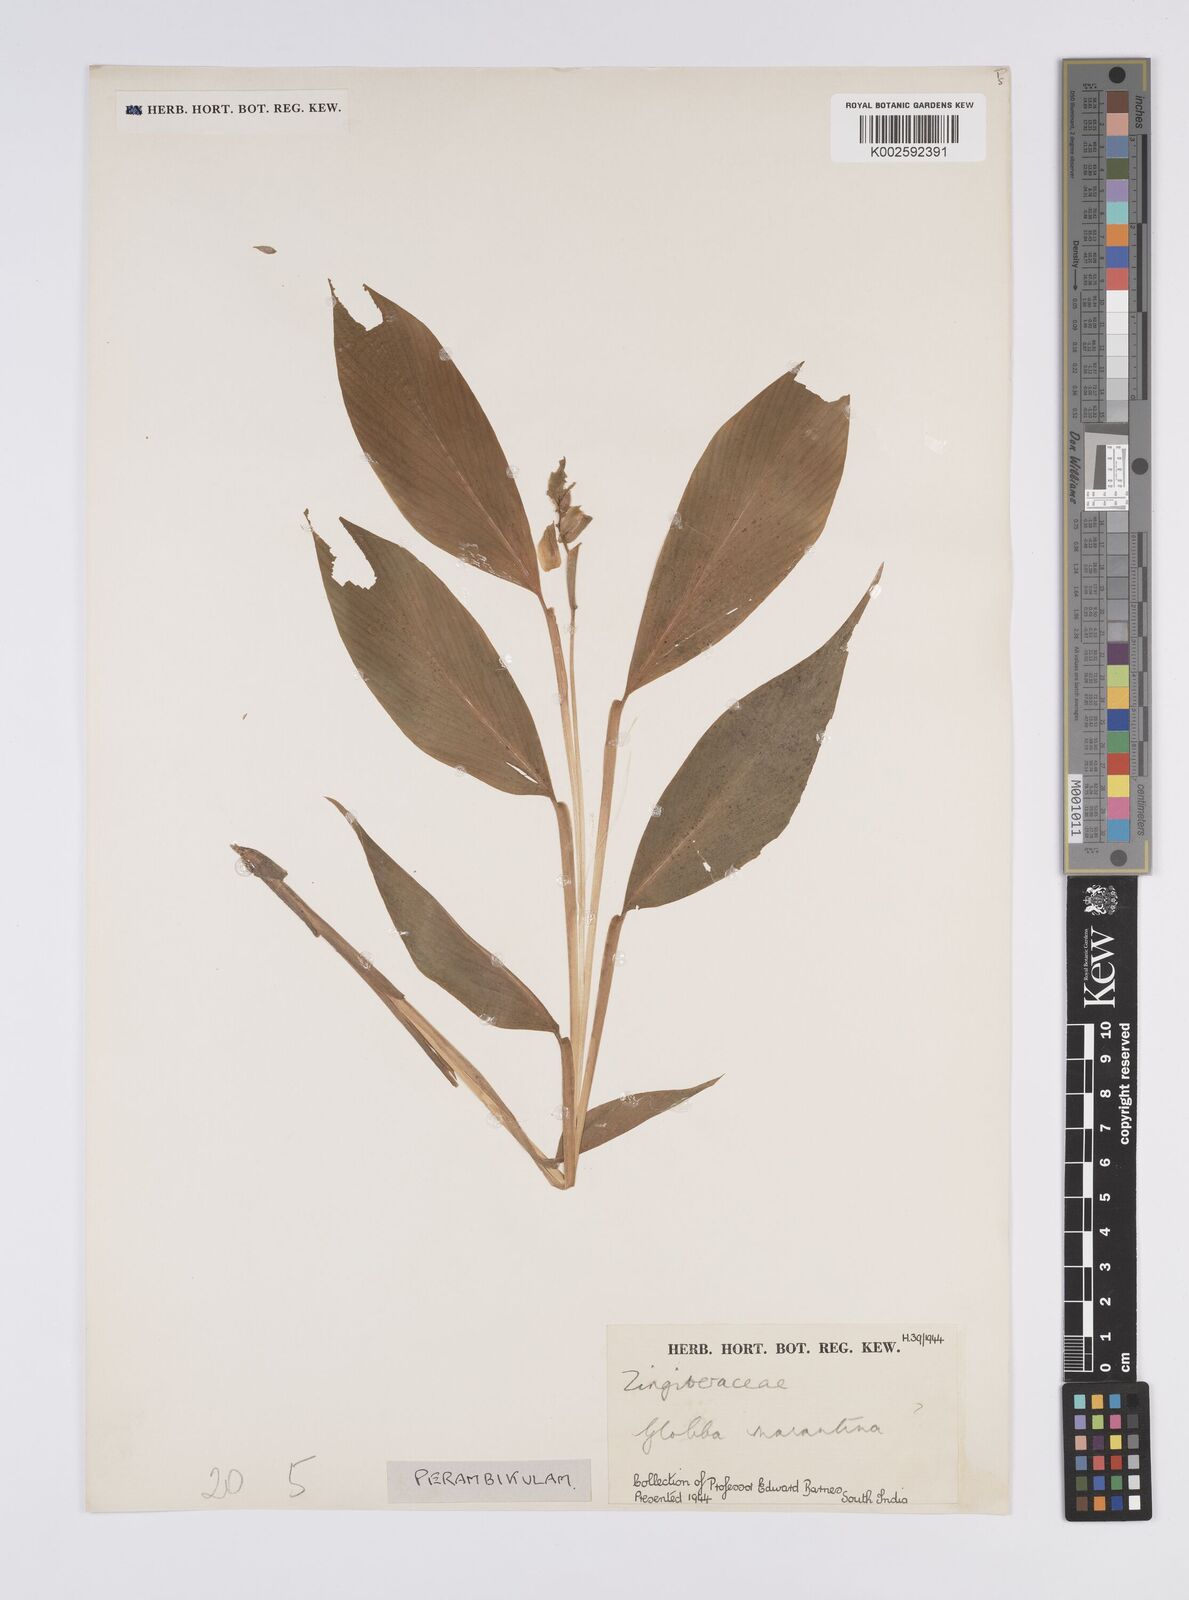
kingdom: Plantae
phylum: Tracheophyta
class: Liliopsida
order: Zingiberales
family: Zingiberaceae
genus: Globba
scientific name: Globba marantina
